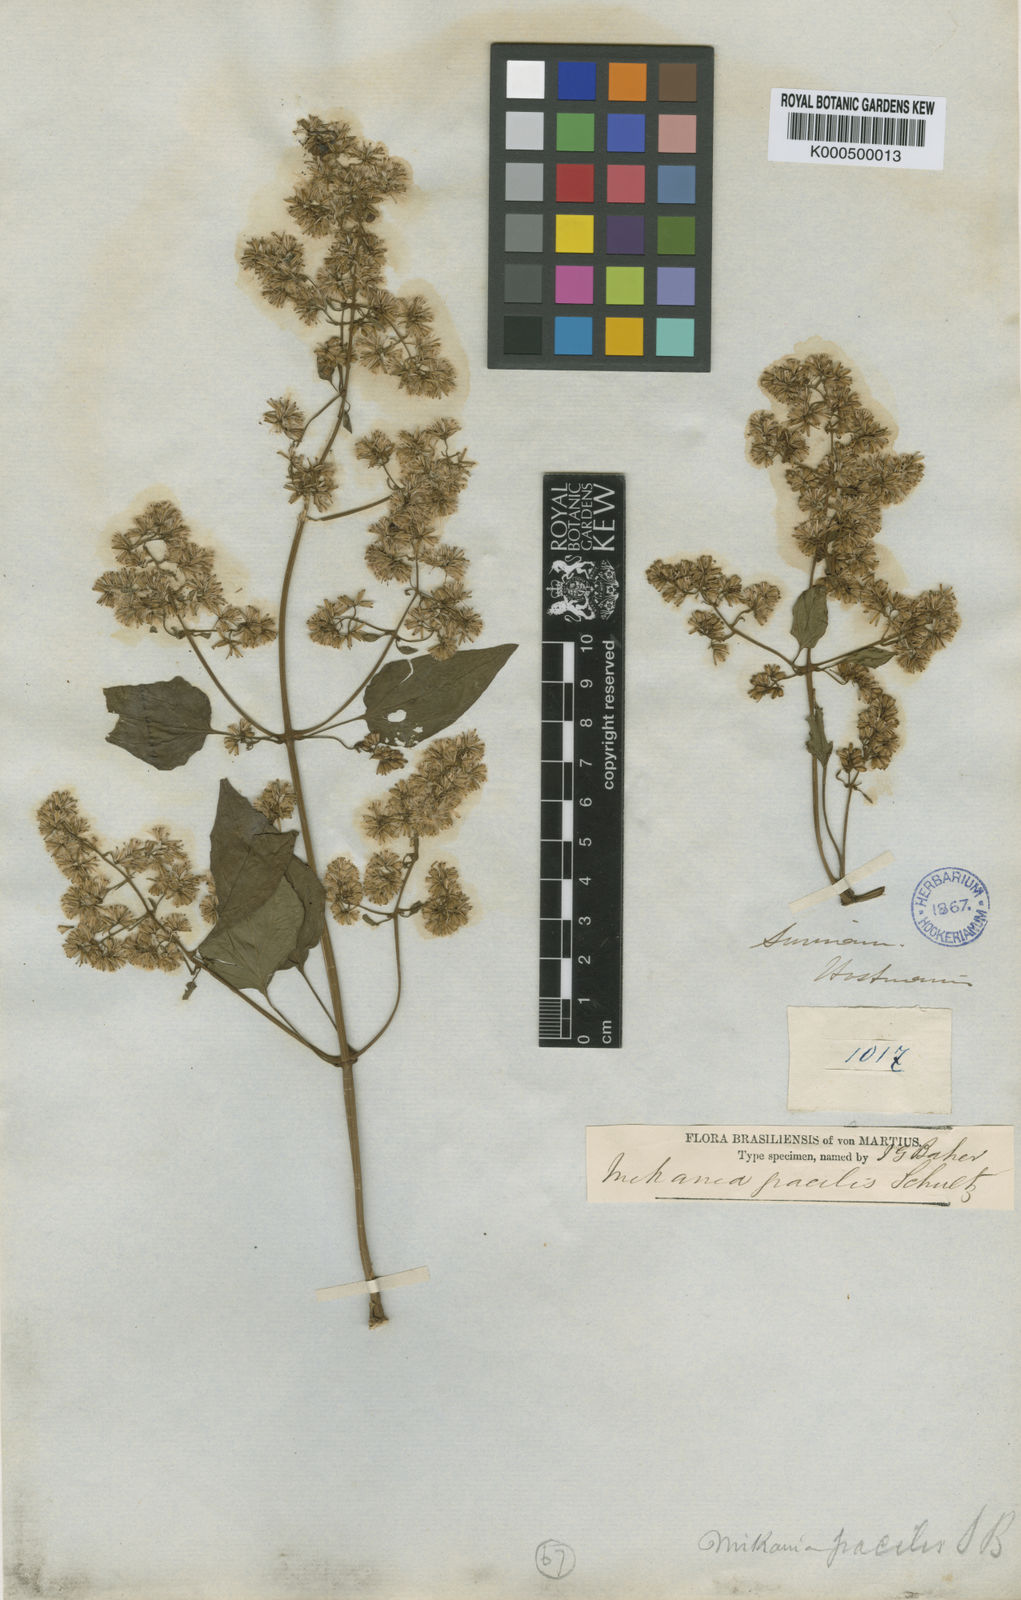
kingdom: Plantae
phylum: Tracheophyta
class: Magnoliopsida
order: Asterales
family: Asteraceae
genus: Mikania
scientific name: Mikania hookeriana
